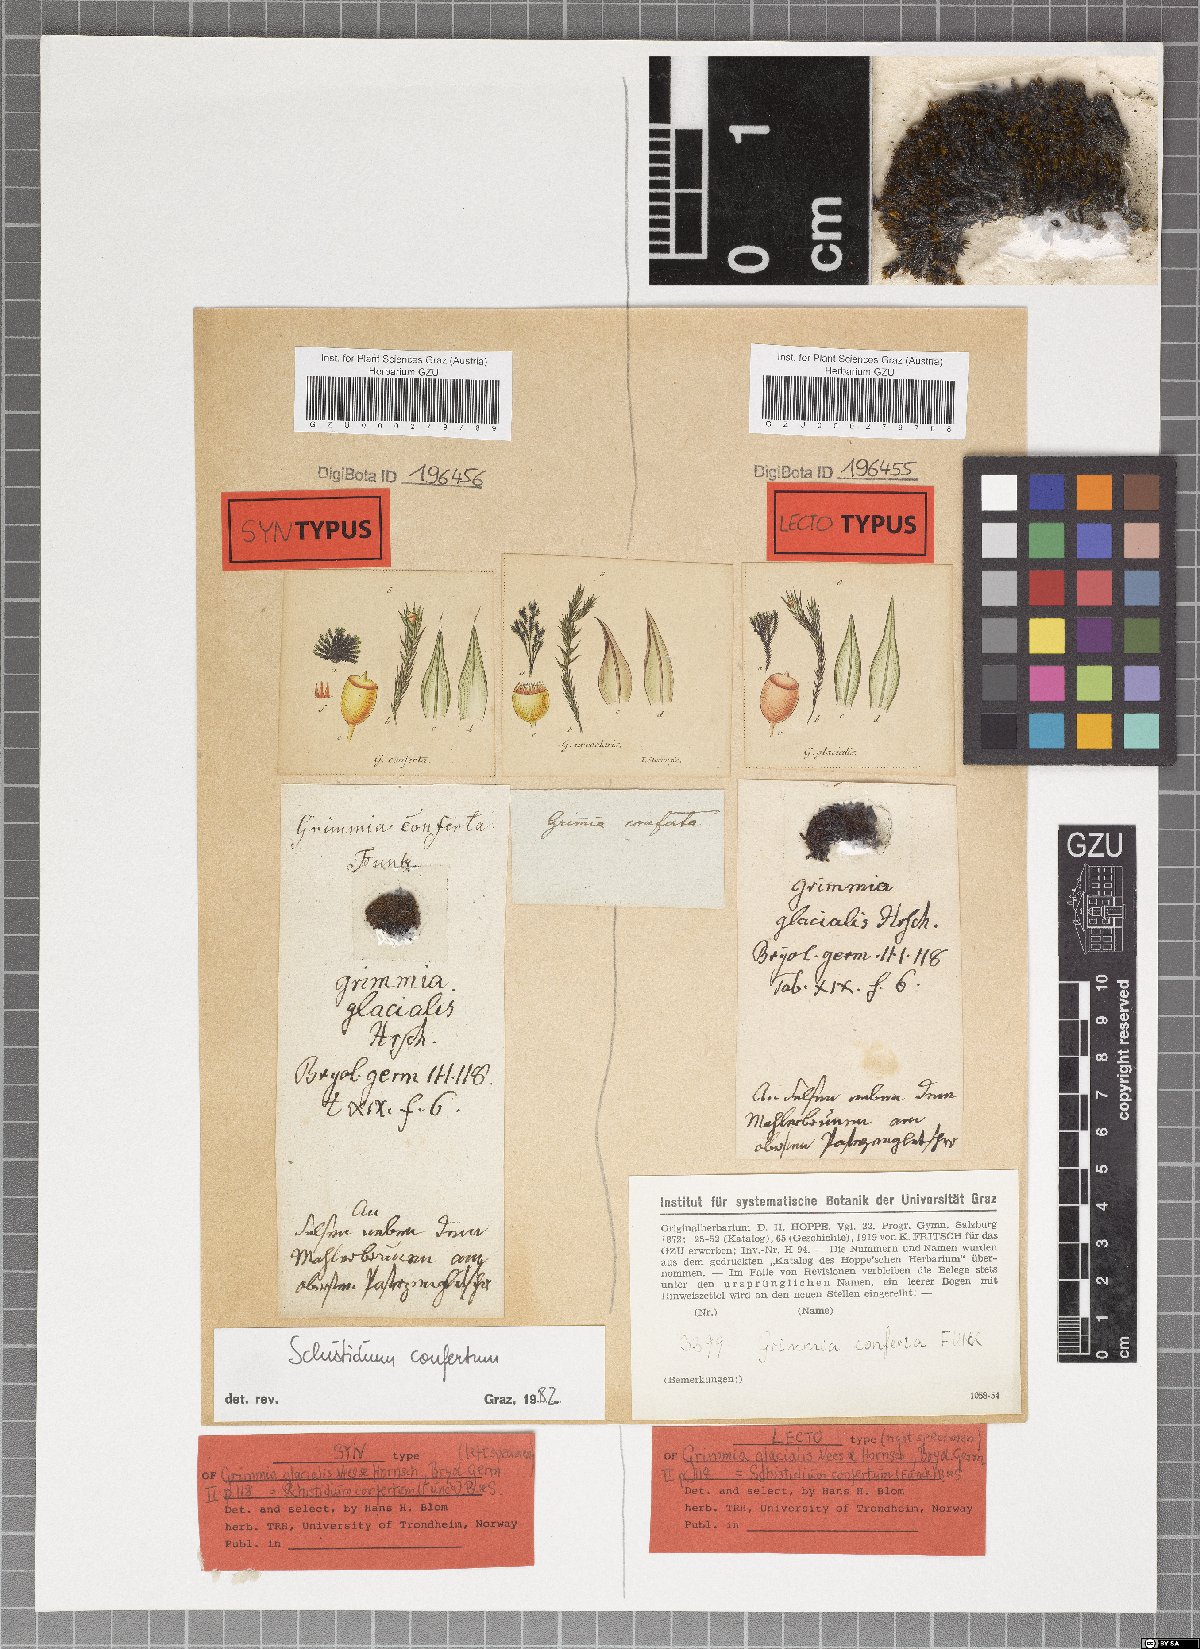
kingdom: Plantae
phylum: Bryophyta
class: Bryopsida
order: Grimmiales
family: Grimmiaceae
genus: Schistidium
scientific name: Schistidium confertum
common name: Compact grimmia
